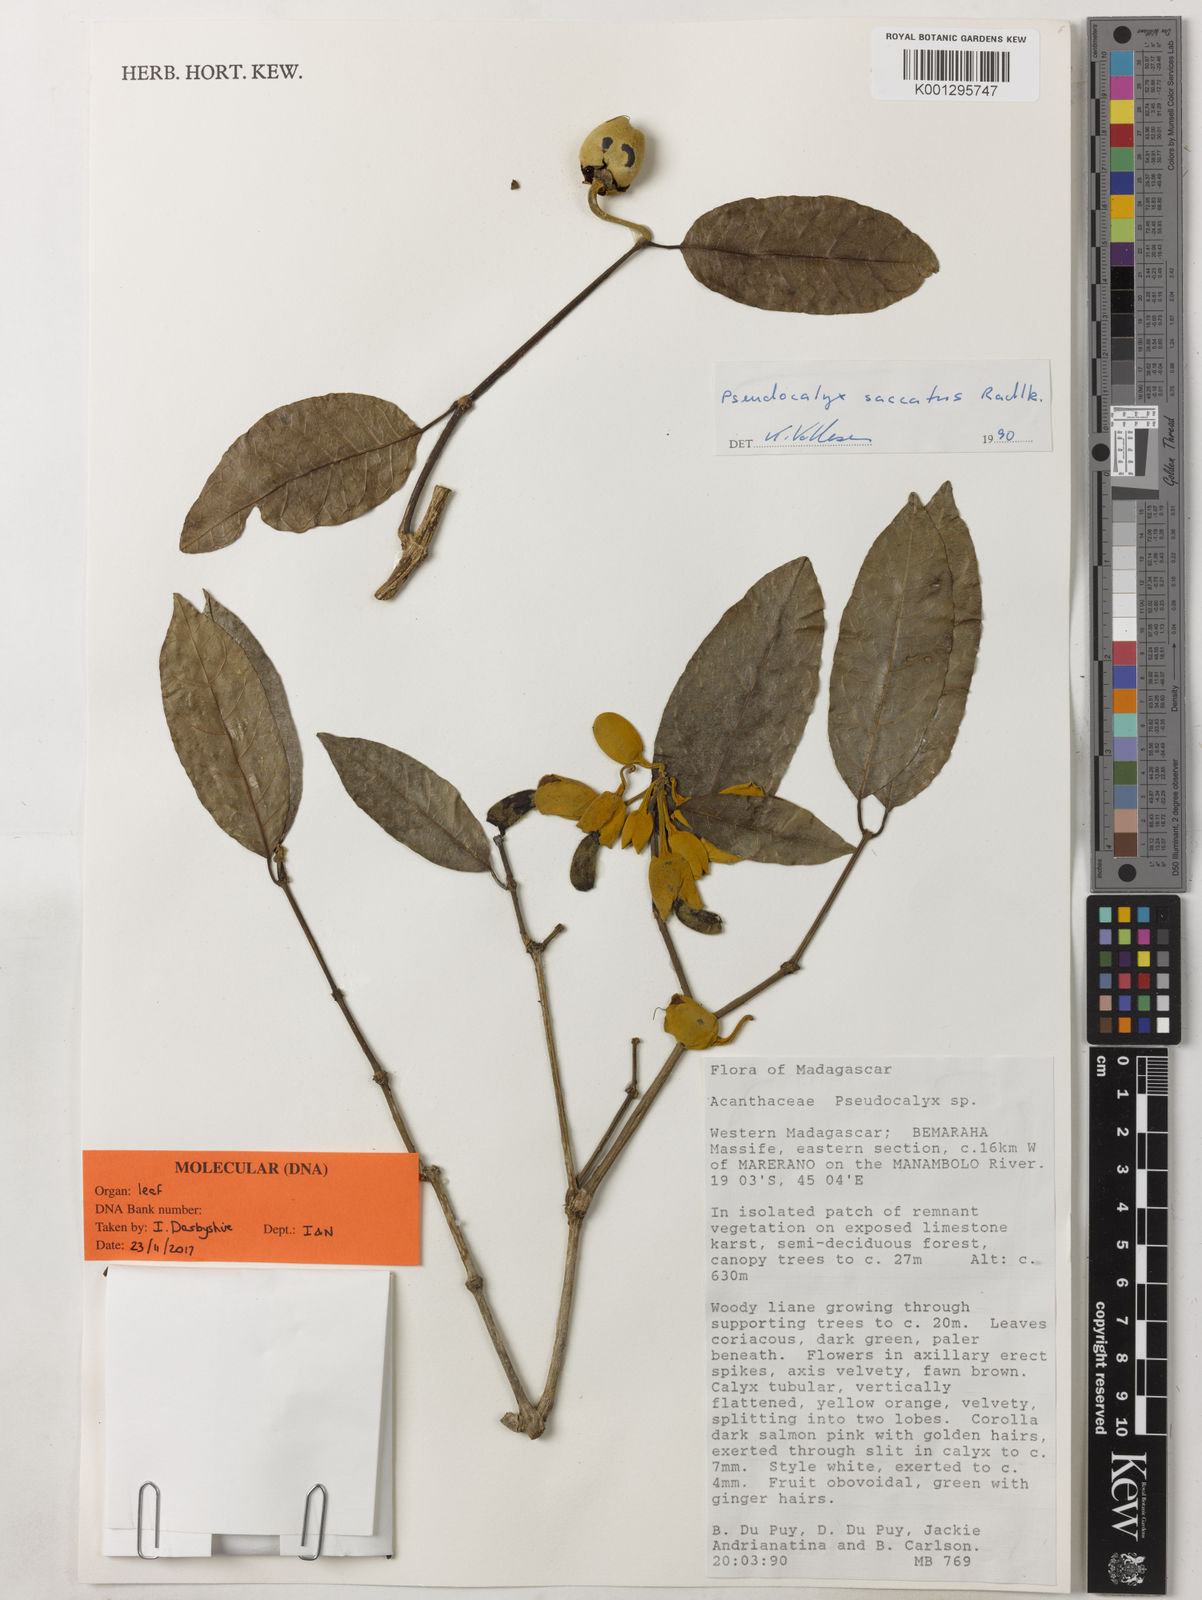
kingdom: Plantae
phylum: Tracheophyta
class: Magnoliopsida
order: Lamiales
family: Acanthaceae
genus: Pseudocalyx
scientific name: Pseudocalyx saccatus
